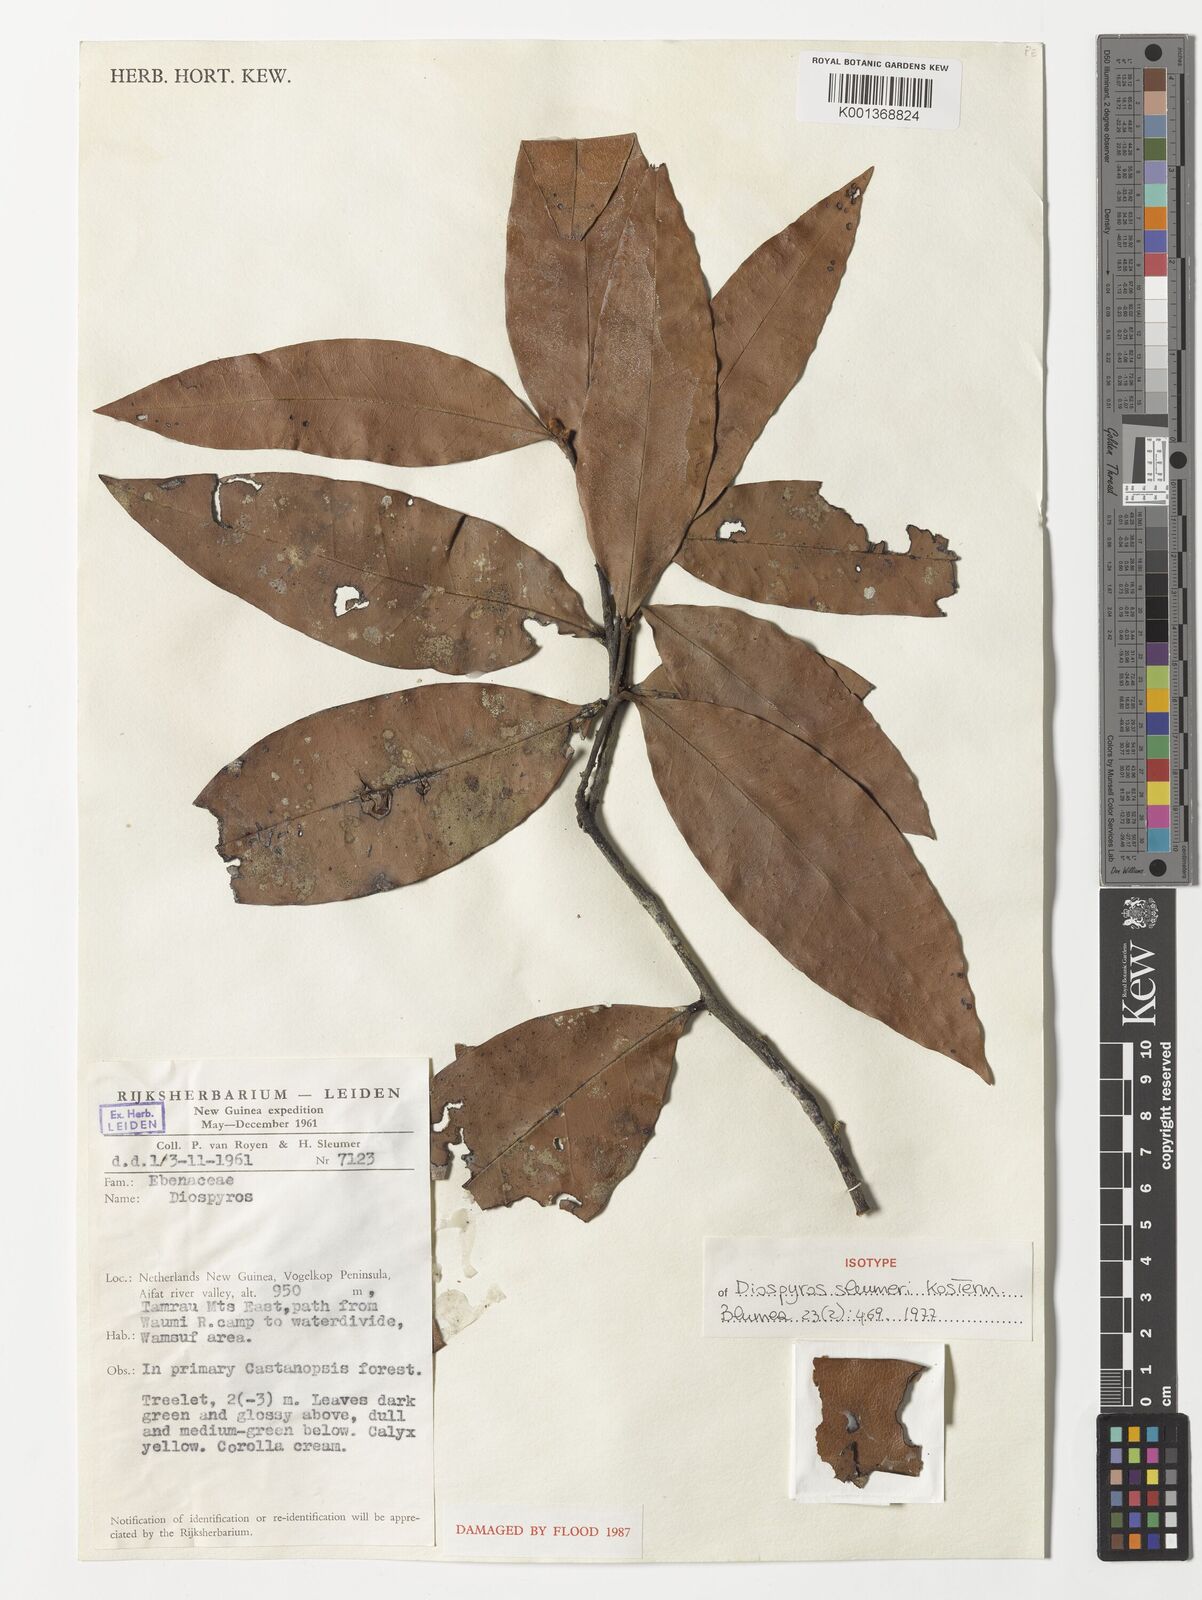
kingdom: Plantae
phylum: Tracheophyta
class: Magnoliopsida
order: Ericales
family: Ebenaceae
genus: Diospyros
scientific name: Diospyros sleumeri
